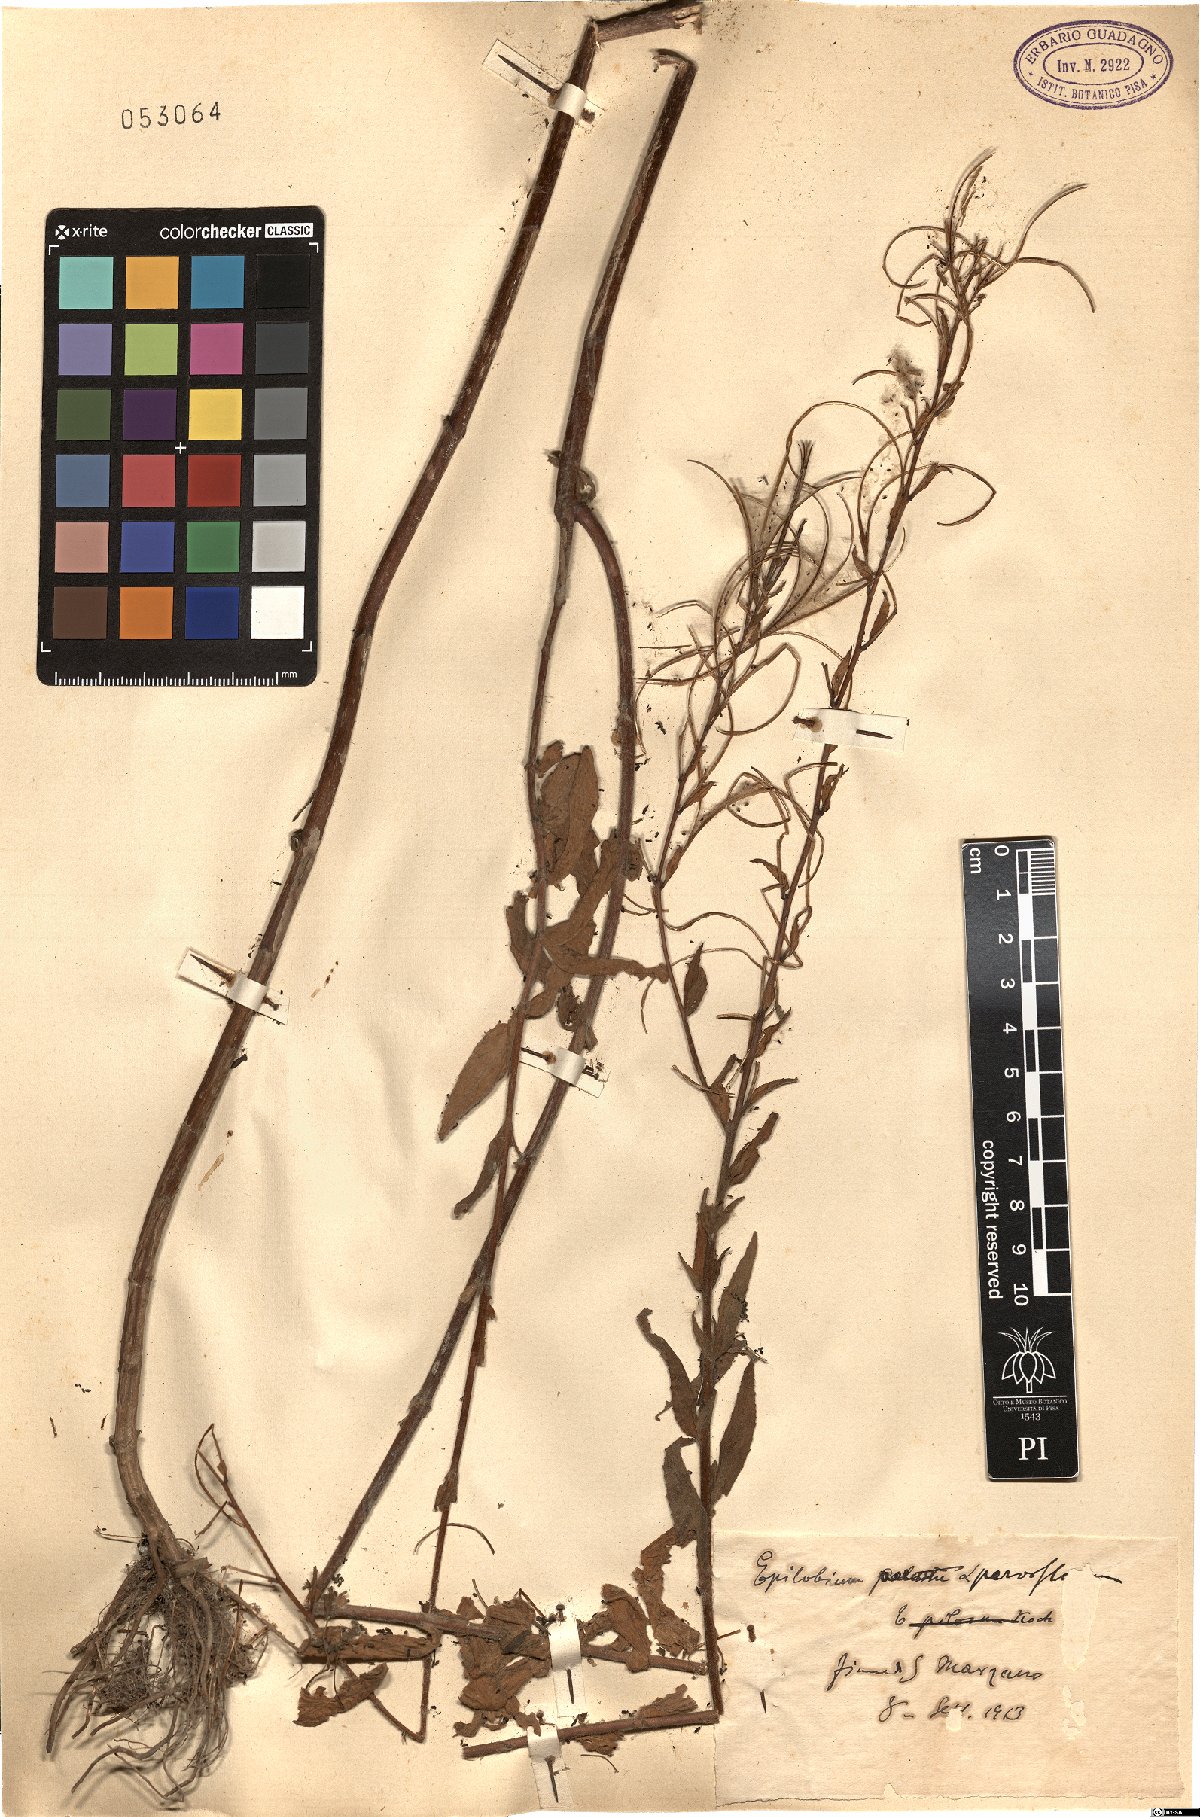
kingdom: Plantae
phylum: Tracheophyta
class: Magnoliopsida
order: Myrtales
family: Onagraceae
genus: Epilobium
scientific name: Epilobium parviflorum
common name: Hoary willowherb
